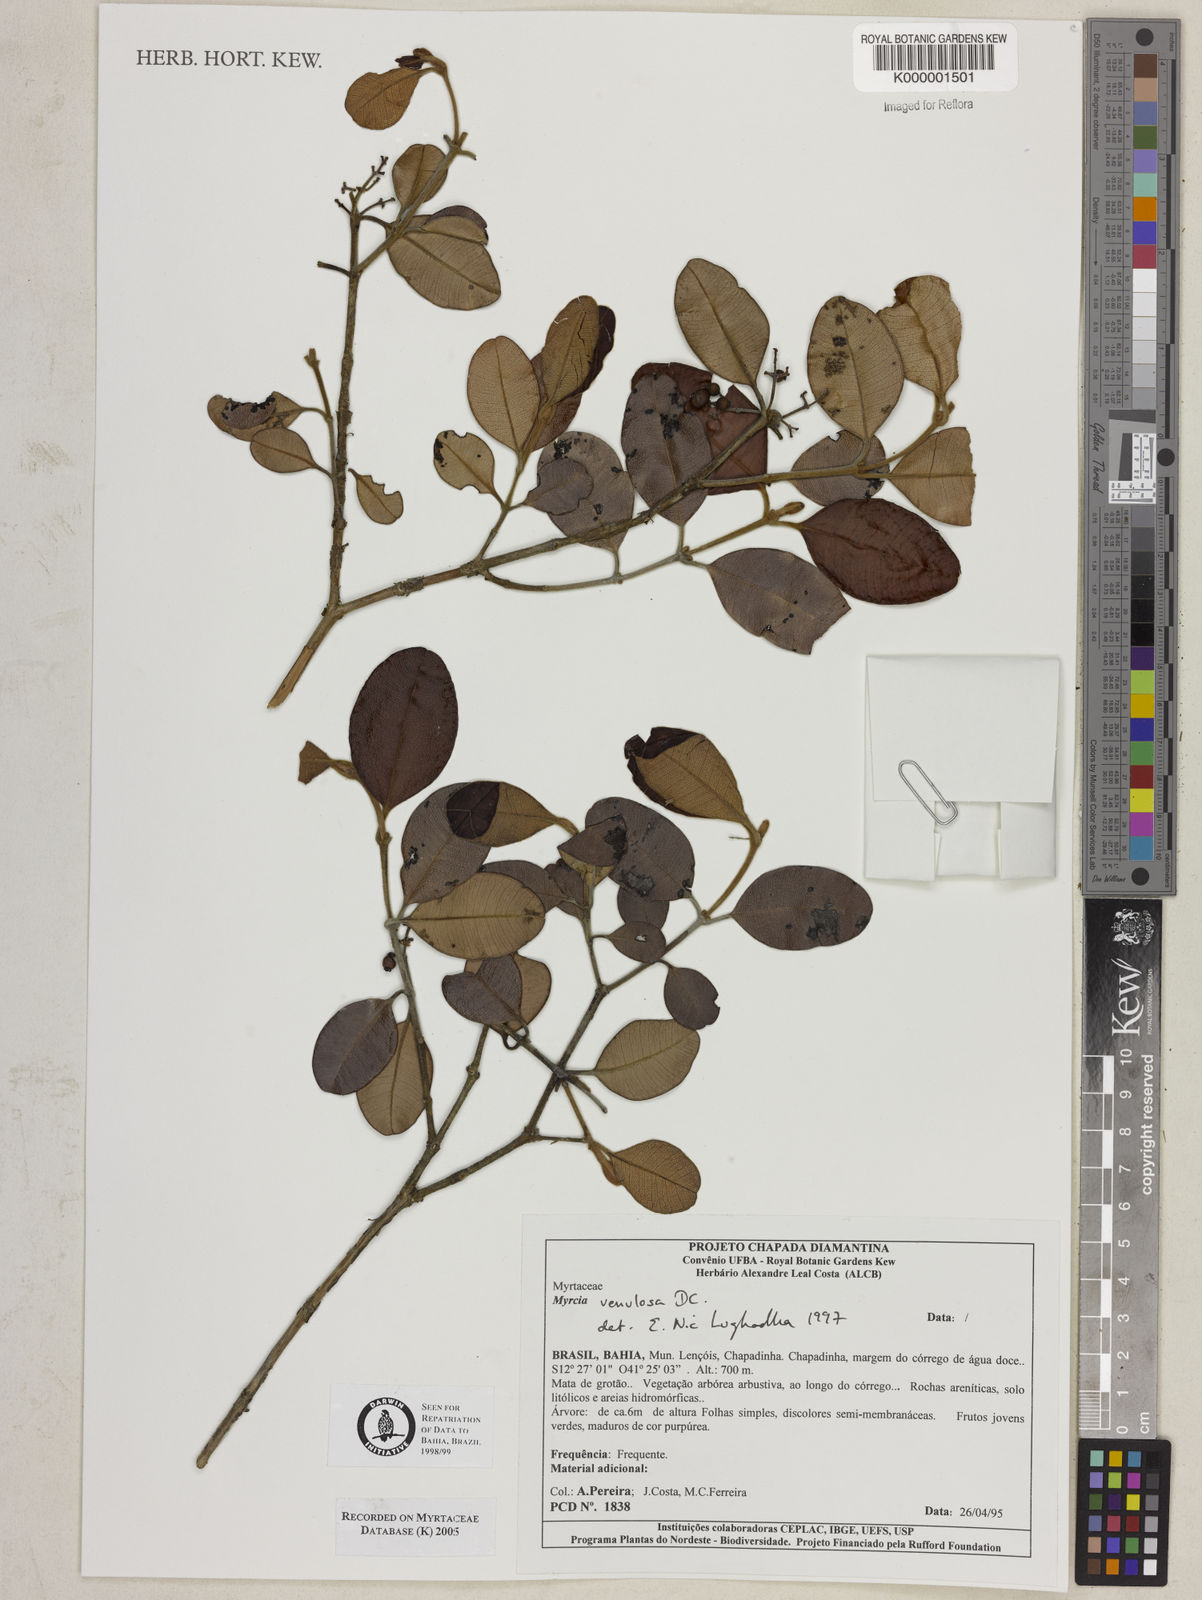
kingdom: Plantae
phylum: Tracheophyta
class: Magnoliopsida
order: Myrtales
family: Myrtaceae
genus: Myrcia
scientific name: Myrcia venulosa
